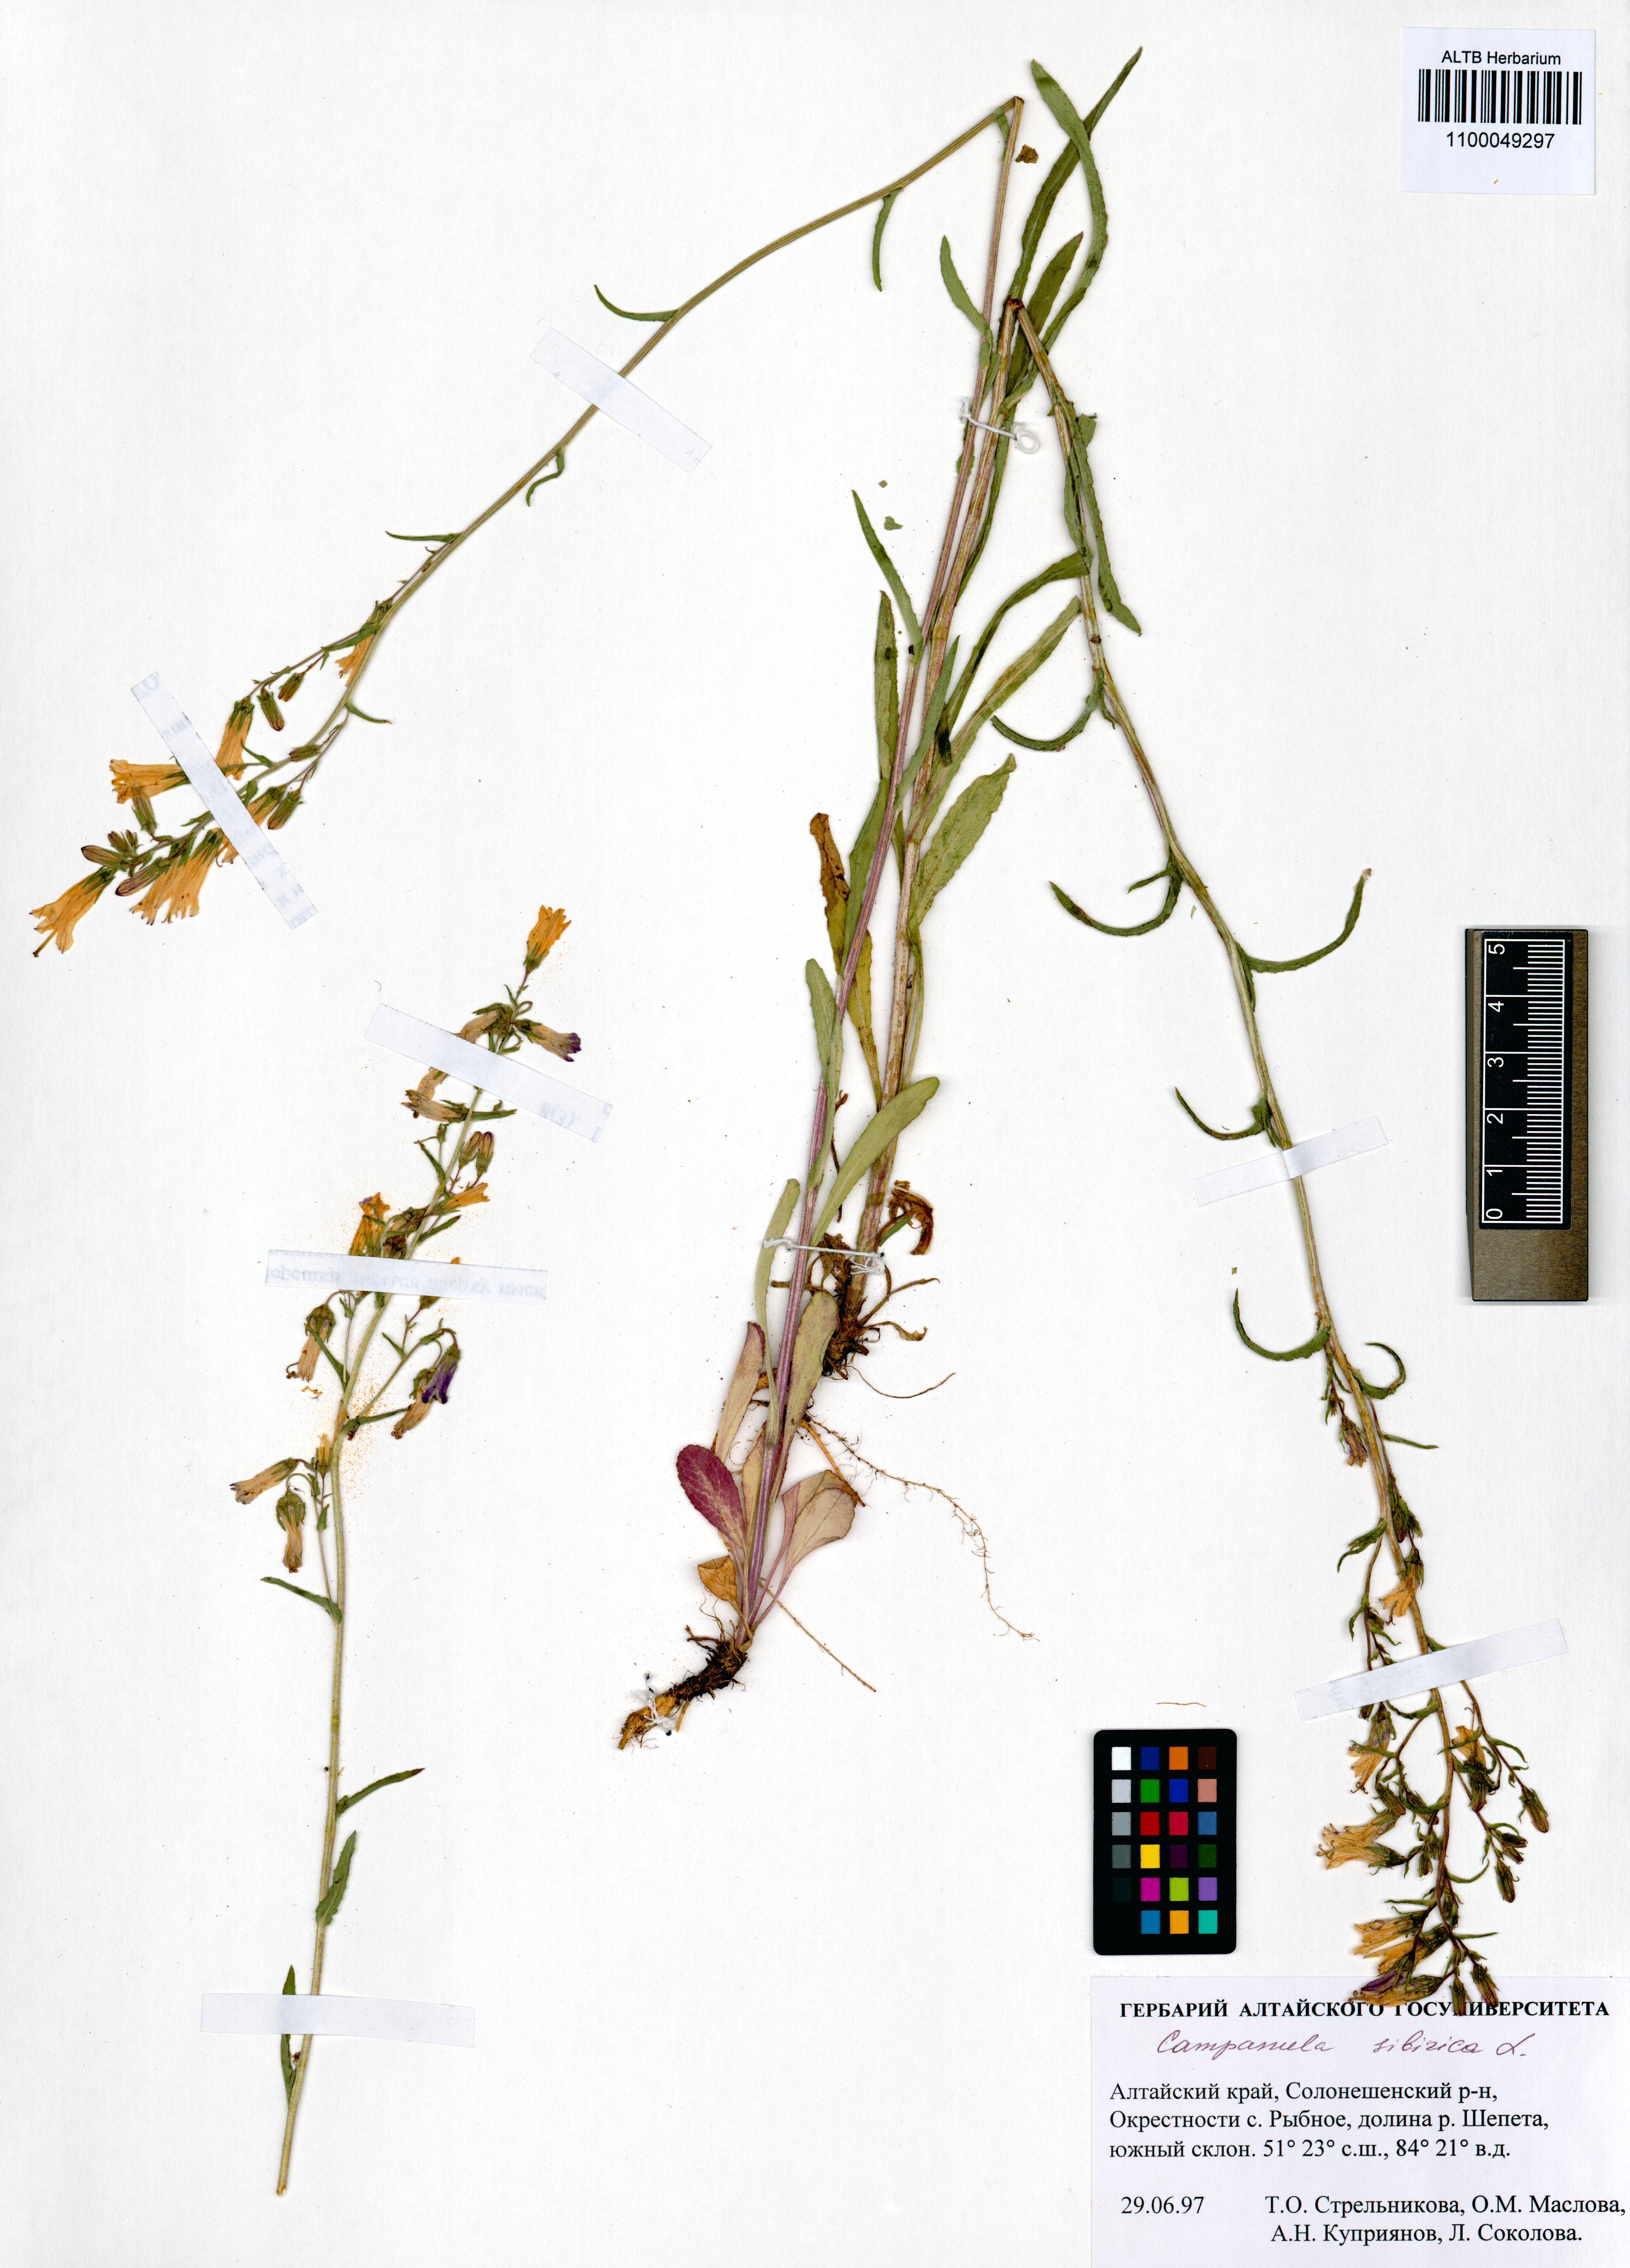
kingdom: Plantae
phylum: Tracheophyta
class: Magnoliopsida
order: Asterales
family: Campanulaceae
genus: Campanula
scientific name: Campanula sibirica
